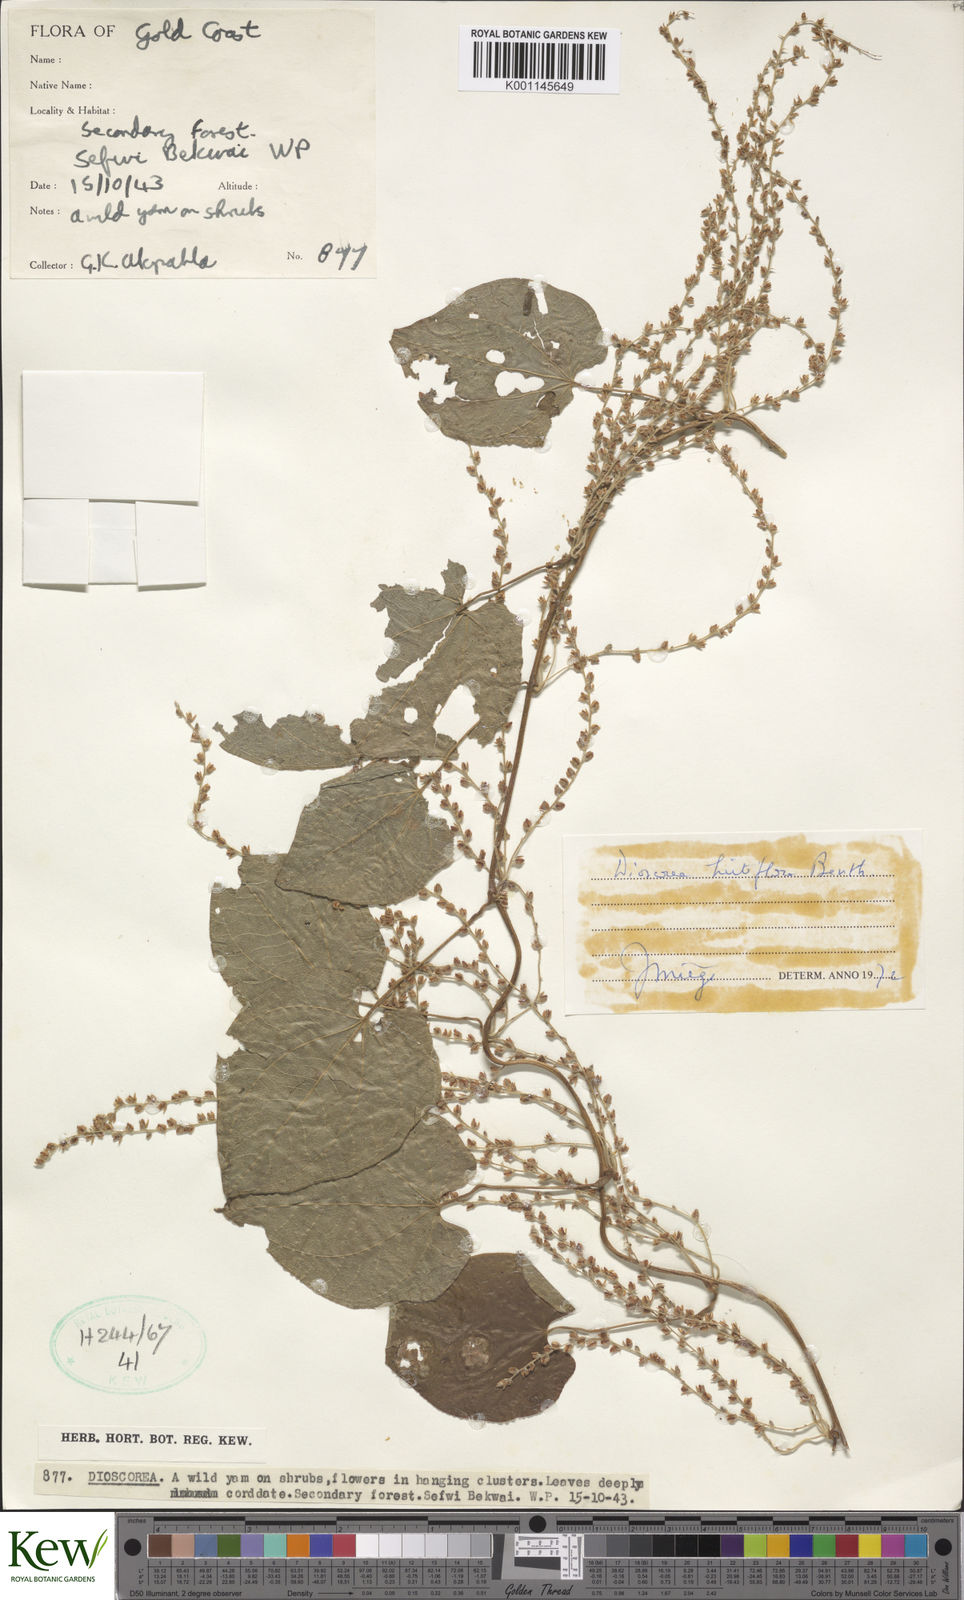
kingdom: Plantae
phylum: Tracheophyta
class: Liliopsida
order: Dioscoreales
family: Dioscoreaceae
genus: Dioscorea
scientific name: Dioscorea hirtiflora
